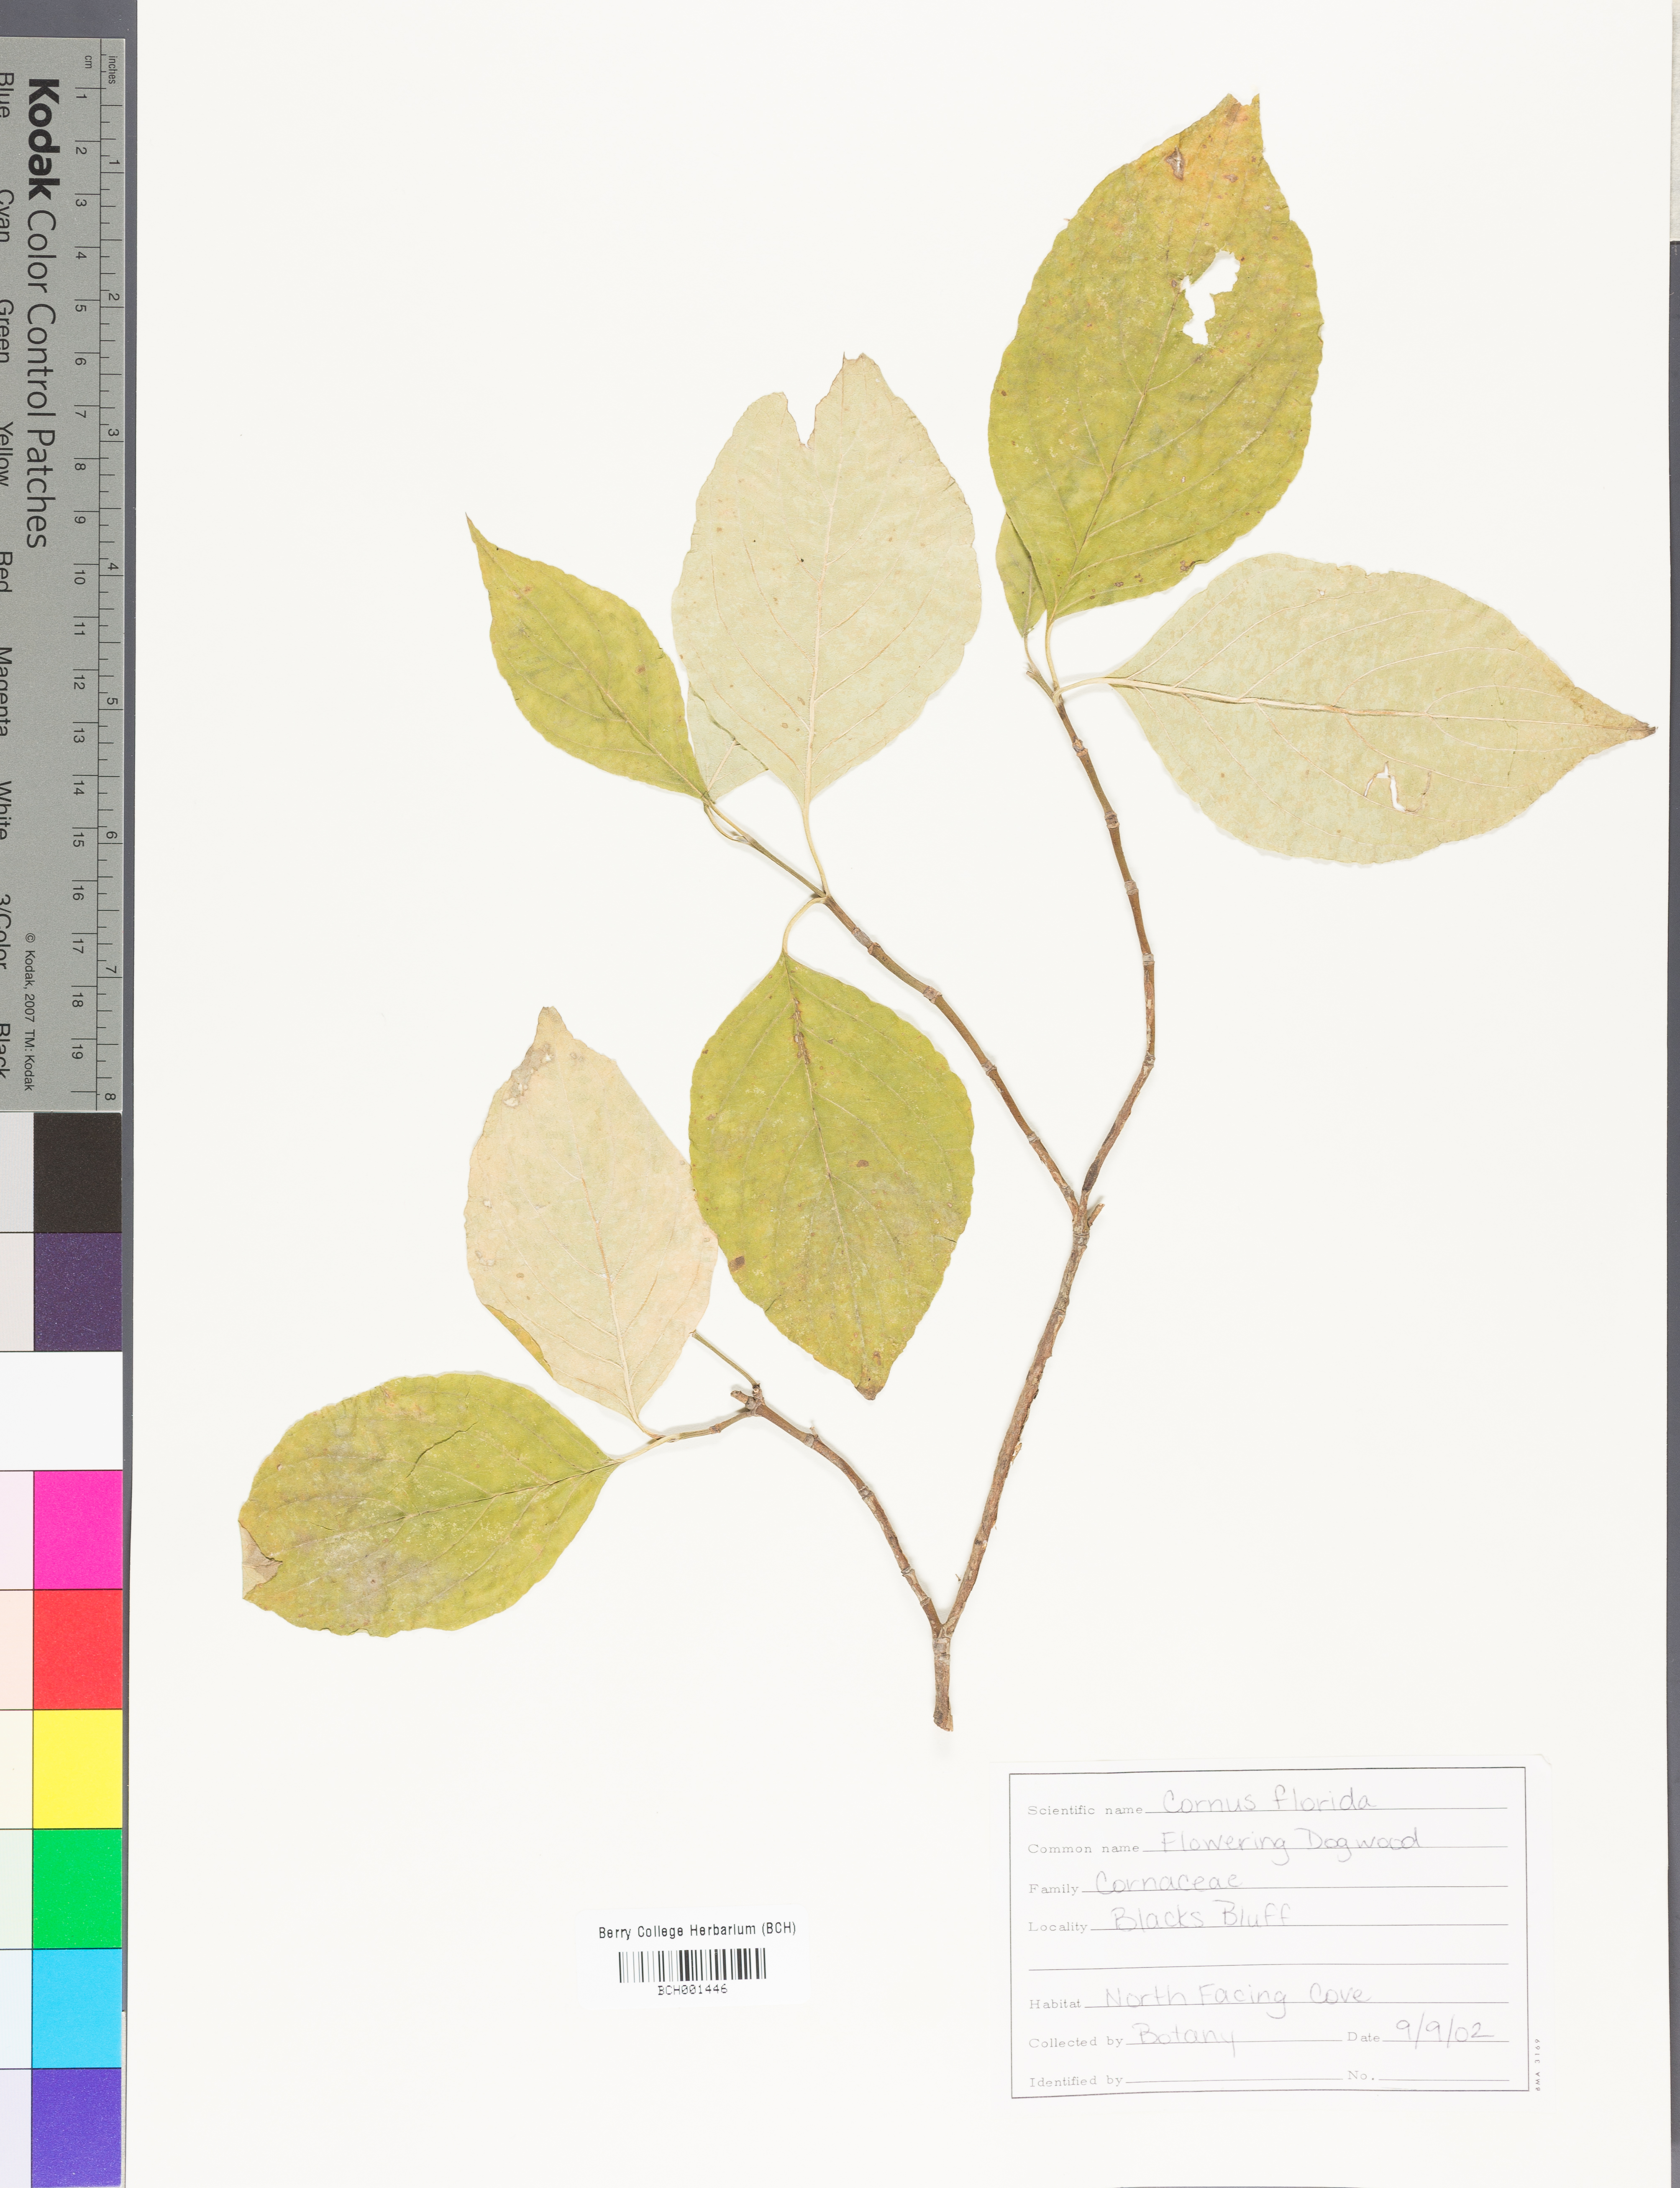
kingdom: Plantae
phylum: Tracheophyta
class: Magnoliopsida
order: Cornales
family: Cornaceae
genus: Cornus
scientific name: Cornus florida
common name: Flowering dogwood
